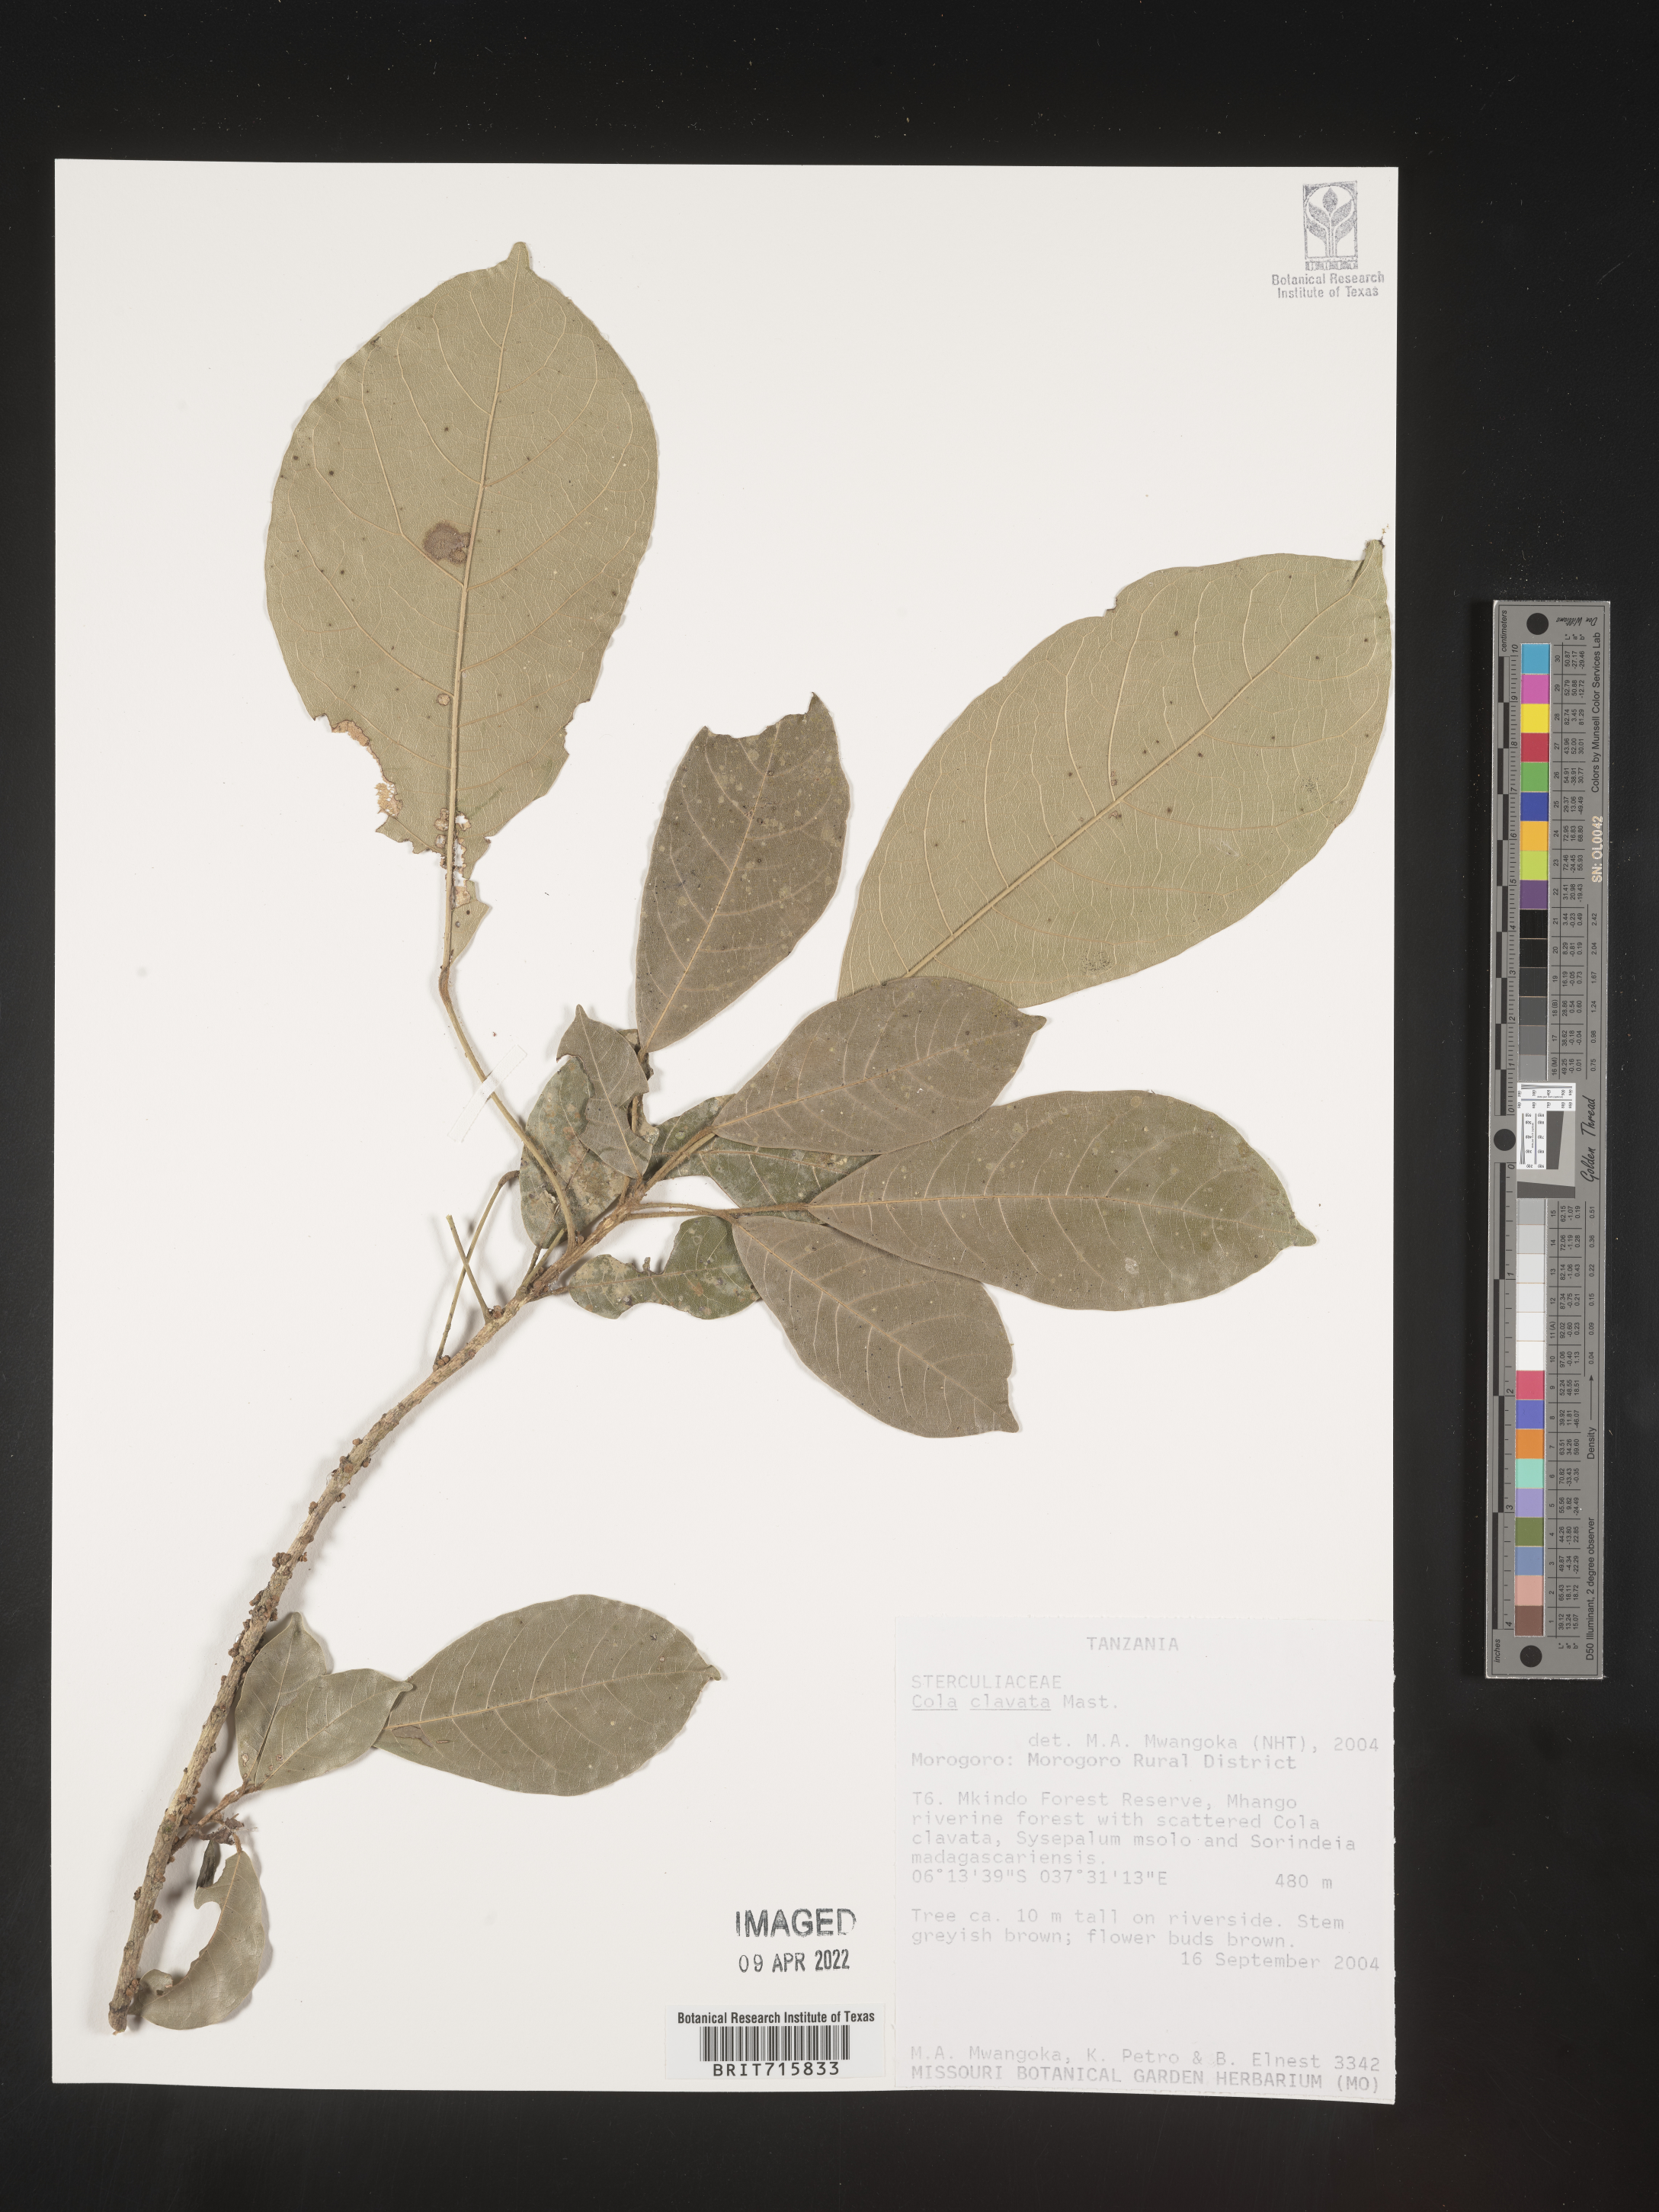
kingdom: Plantae
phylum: Tracheophyta
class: Magnoliopsida
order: Malvales
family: Malvaceae
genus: Cola
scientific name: Cola
